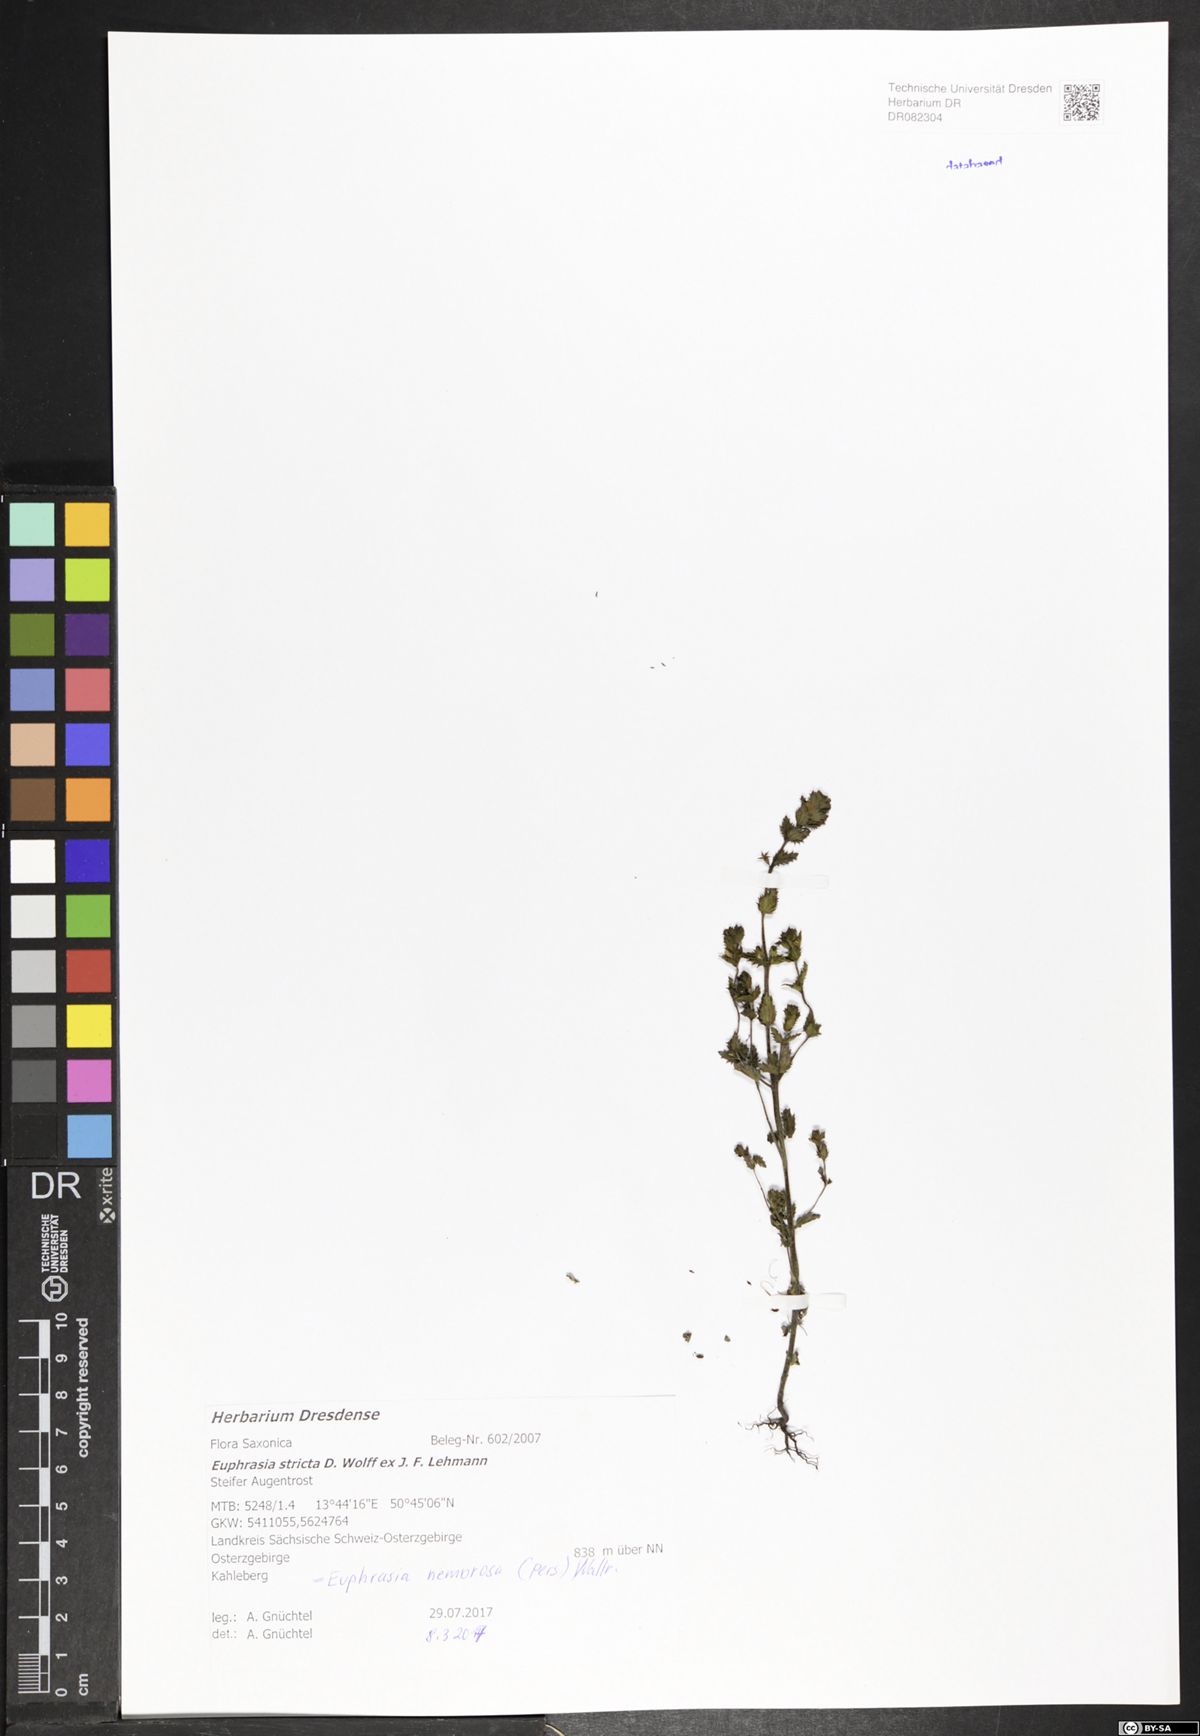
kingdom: Plantae
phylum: Tracheophyta
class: Magnoliopsida
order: Lamiales
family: Orobanchaceae
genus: Euphrasia
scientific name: Euphrasia stricta
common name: Drug eyebright
